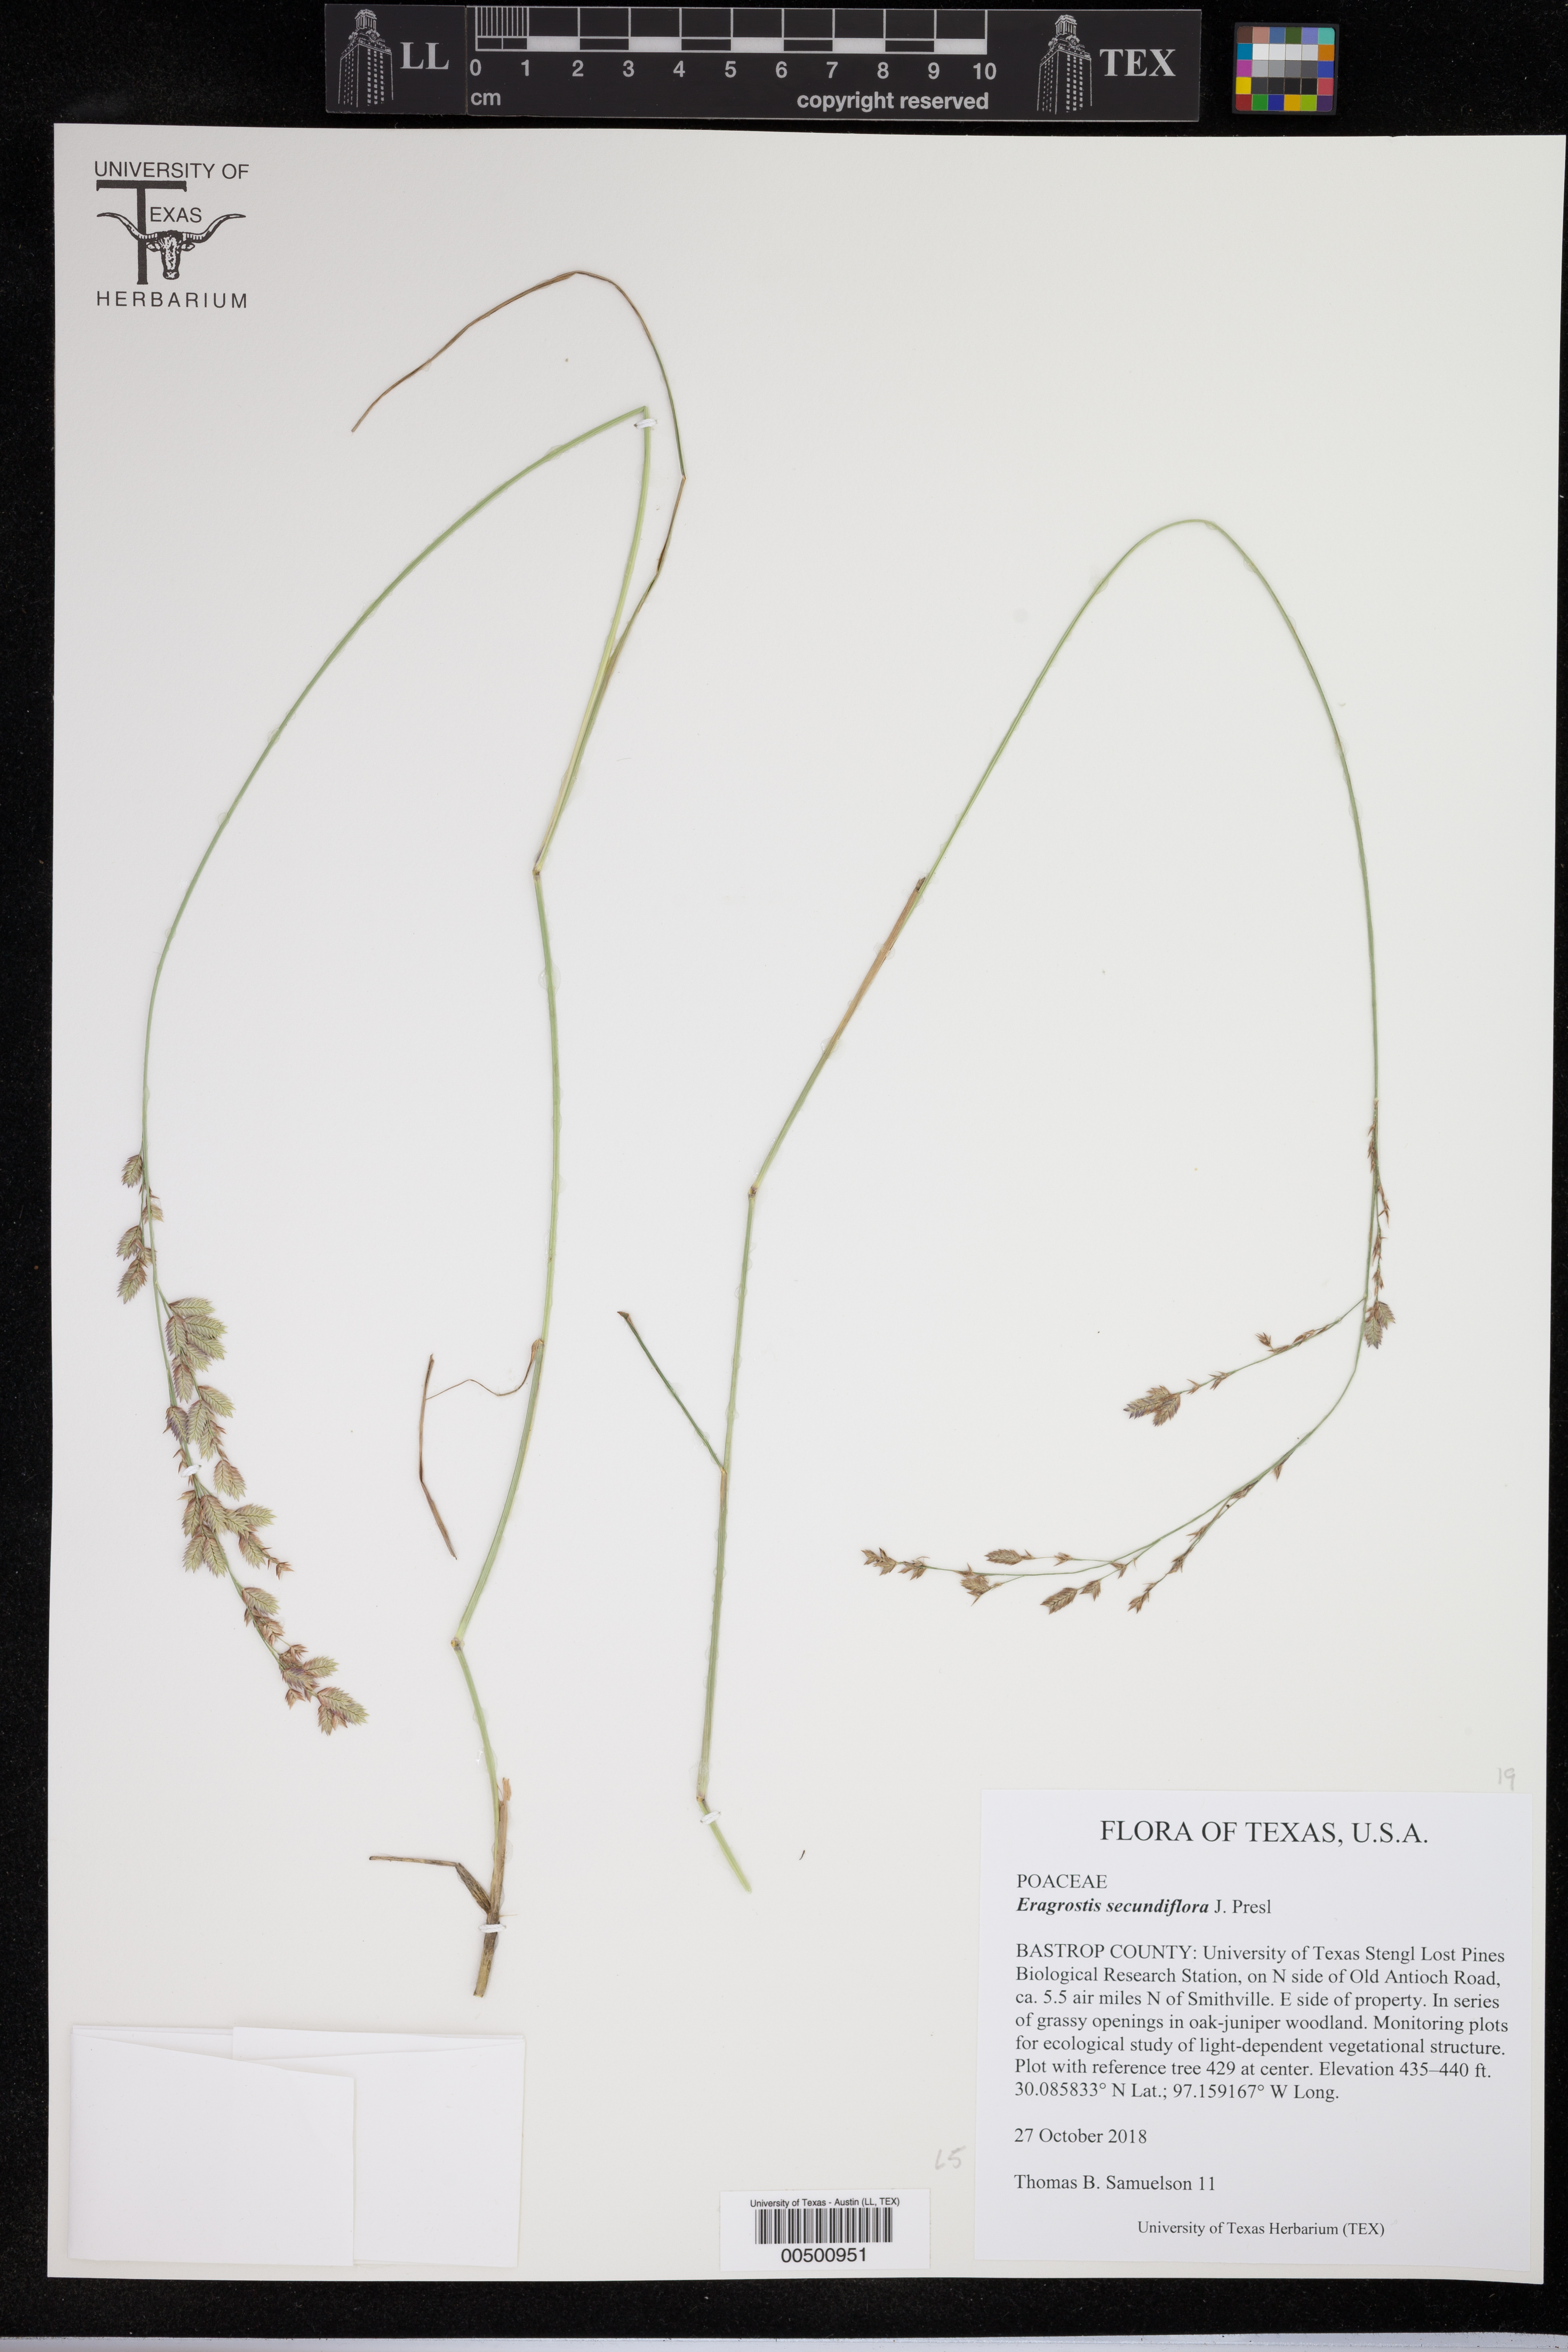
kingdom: Plantae
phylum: Tracheophyta
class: Liliopsida
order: Poales
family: Poaceae
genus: Eragrostis
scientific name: Eragrostis secundiflora
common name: Red love grass
